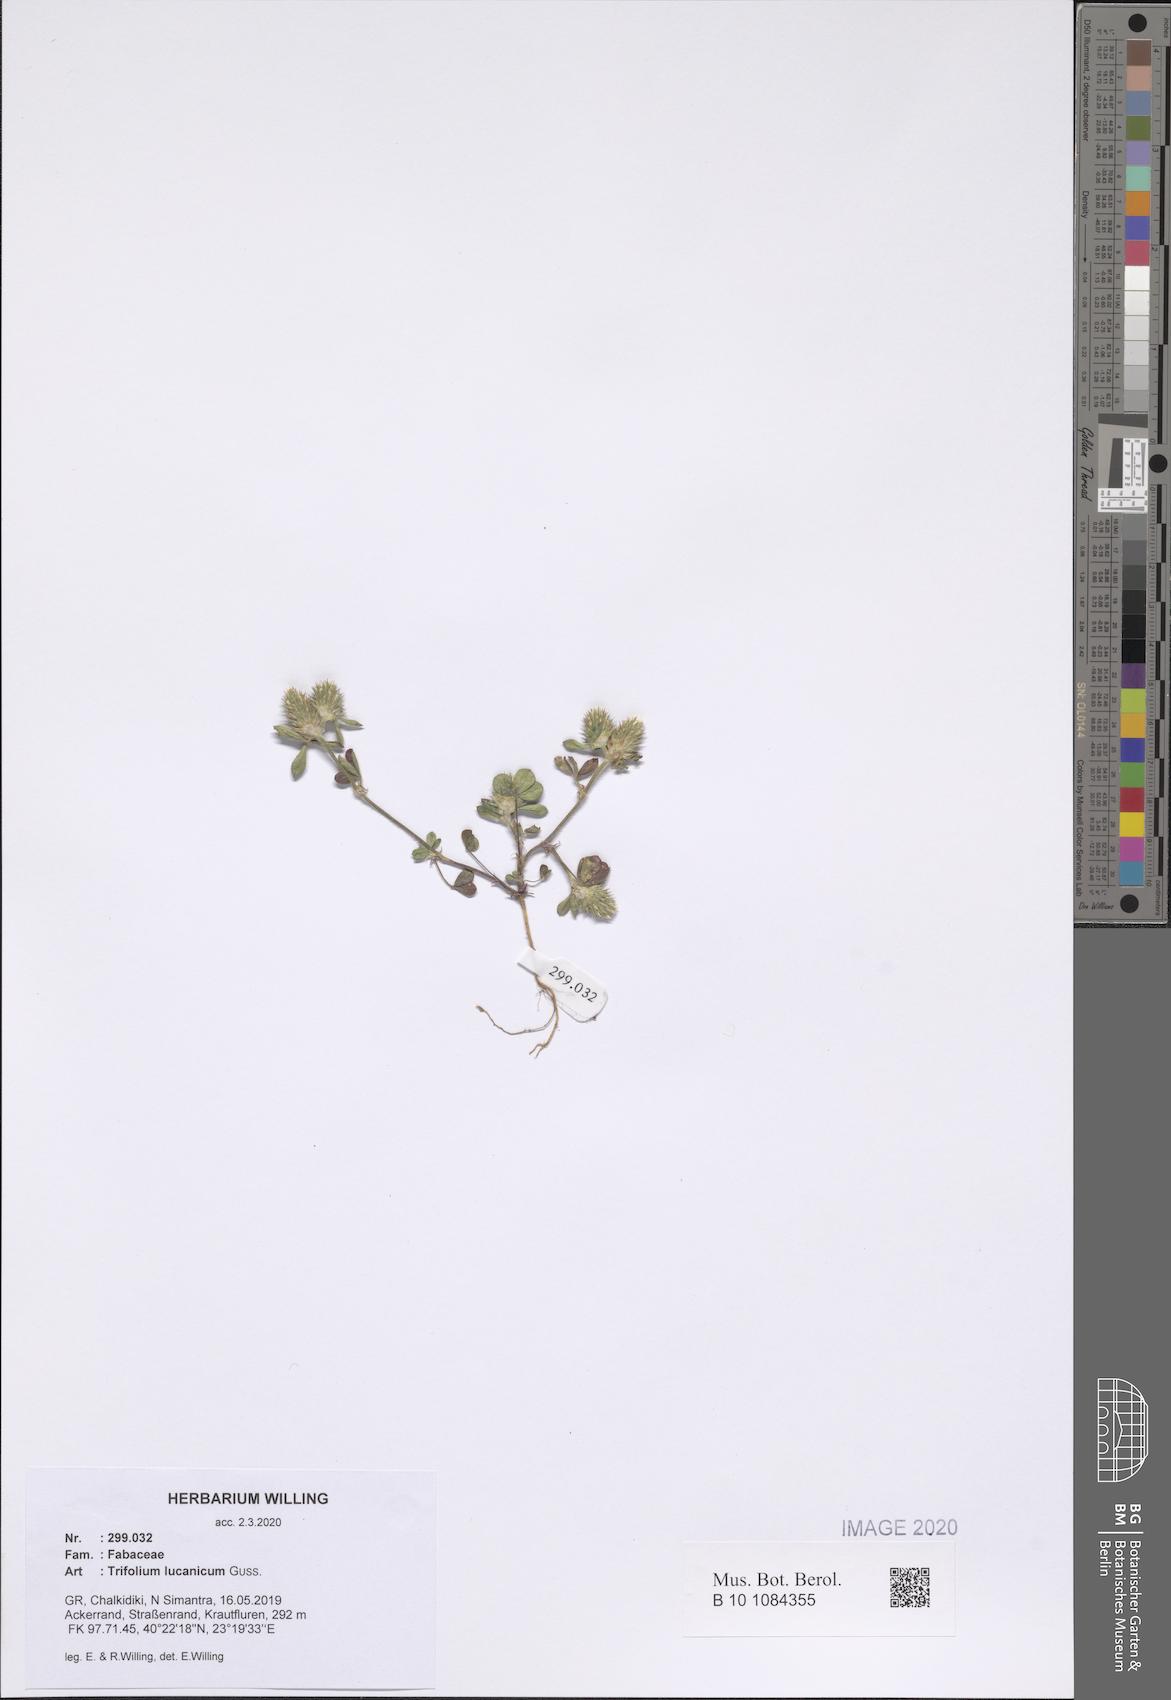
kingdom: Plantae
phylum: Tracheophyta
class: Magnoliopsida
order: Fabales
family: Fabaceae
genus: Trifolium
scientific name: Trifolium lucanicum
